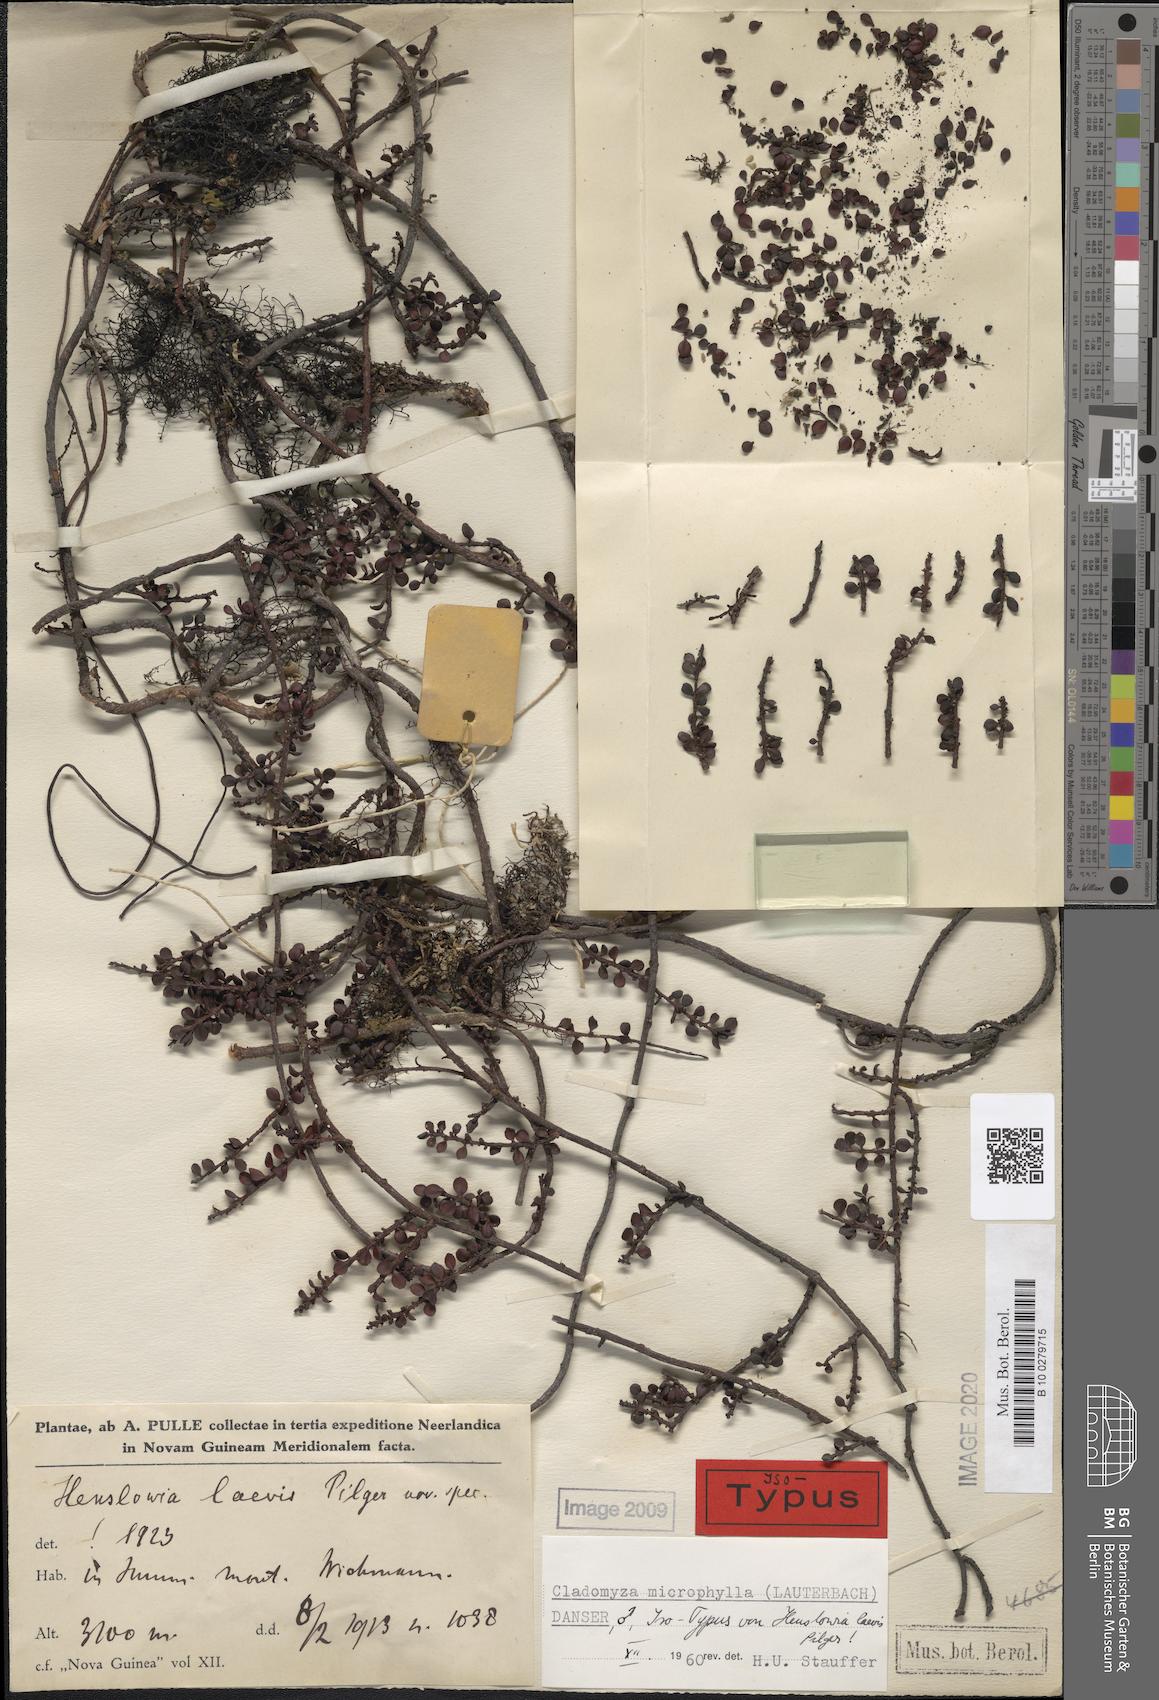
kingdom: Plantae
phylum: Tracheophyta
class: Magnoliopsida
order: Santalales
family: Amphorogynaceae
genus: Cladomyza
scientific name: Cladomyza microphylla
